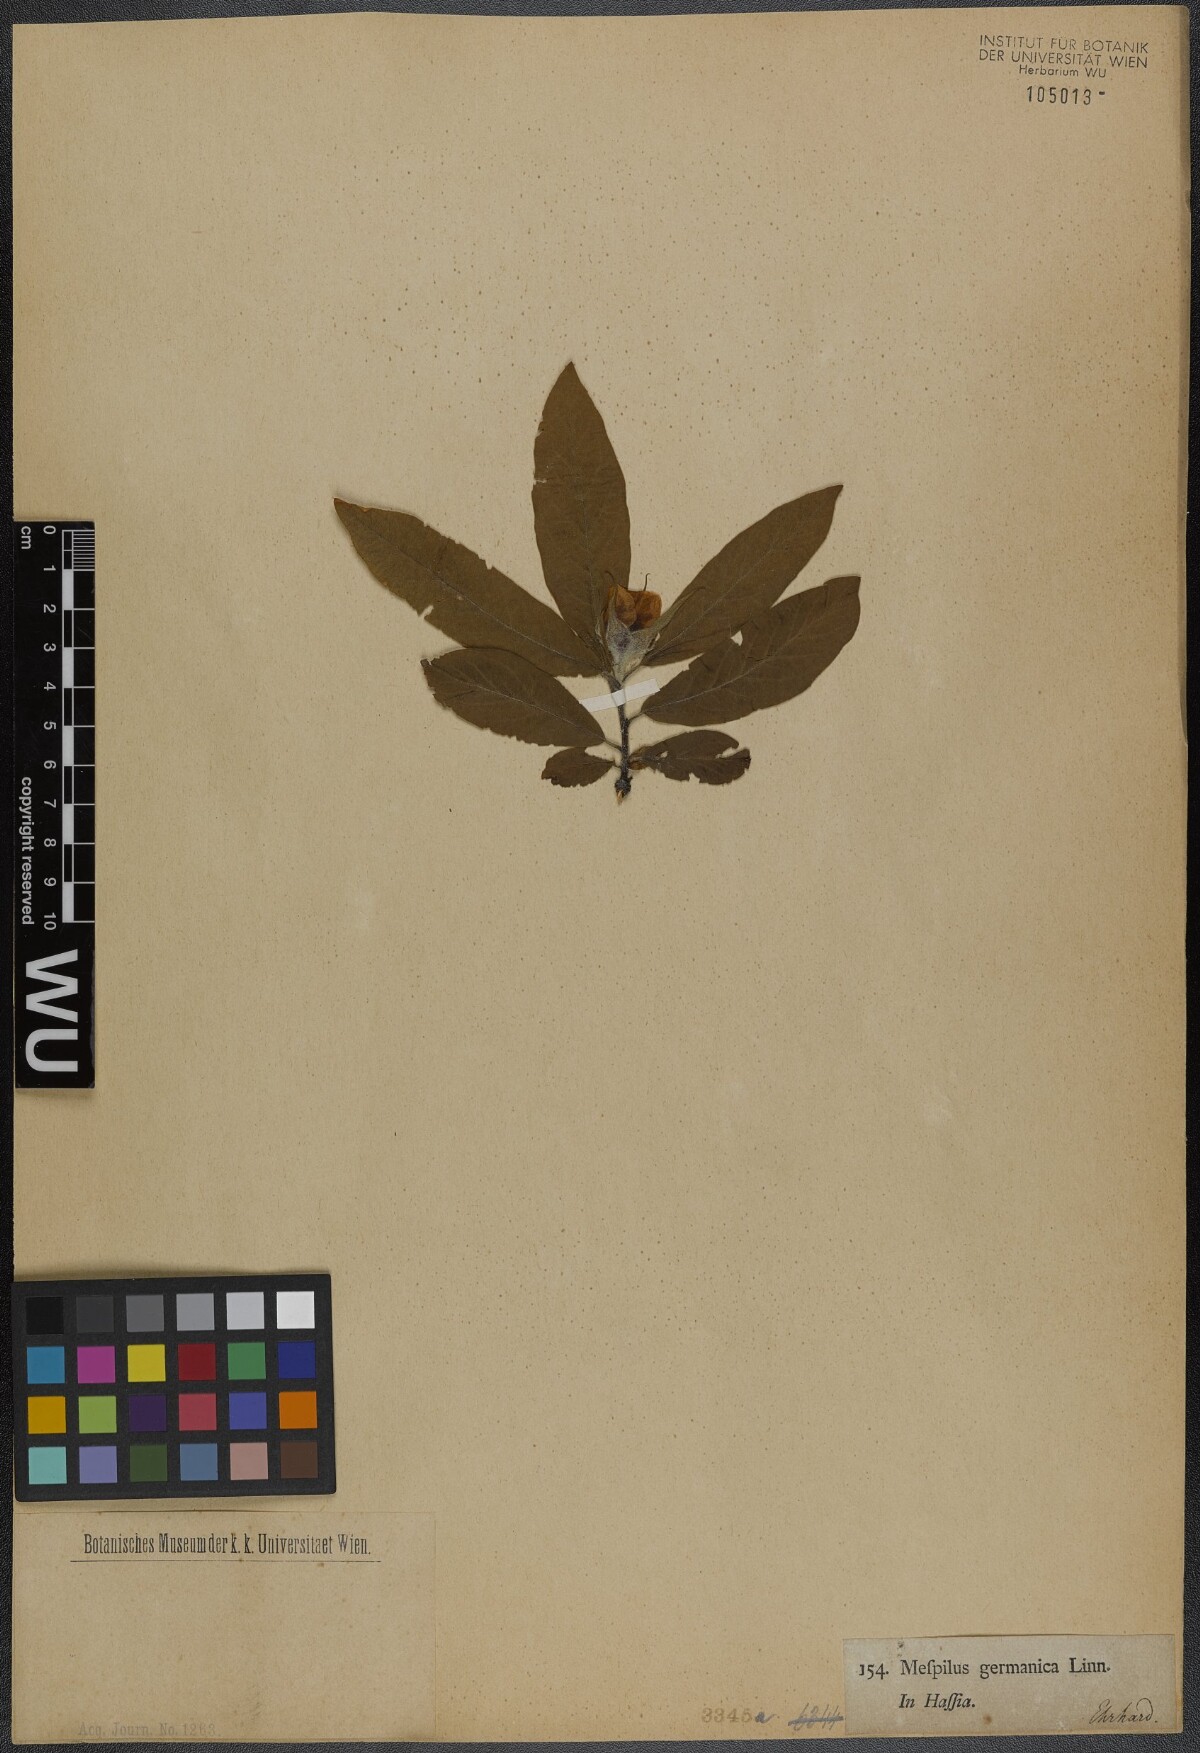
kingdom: Plantae
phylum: Tracheophyta
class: Magnoliopsida
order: Rosales
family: Rosaceae
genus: Mespilus
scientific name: Mespilus germanica
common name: Medlar
